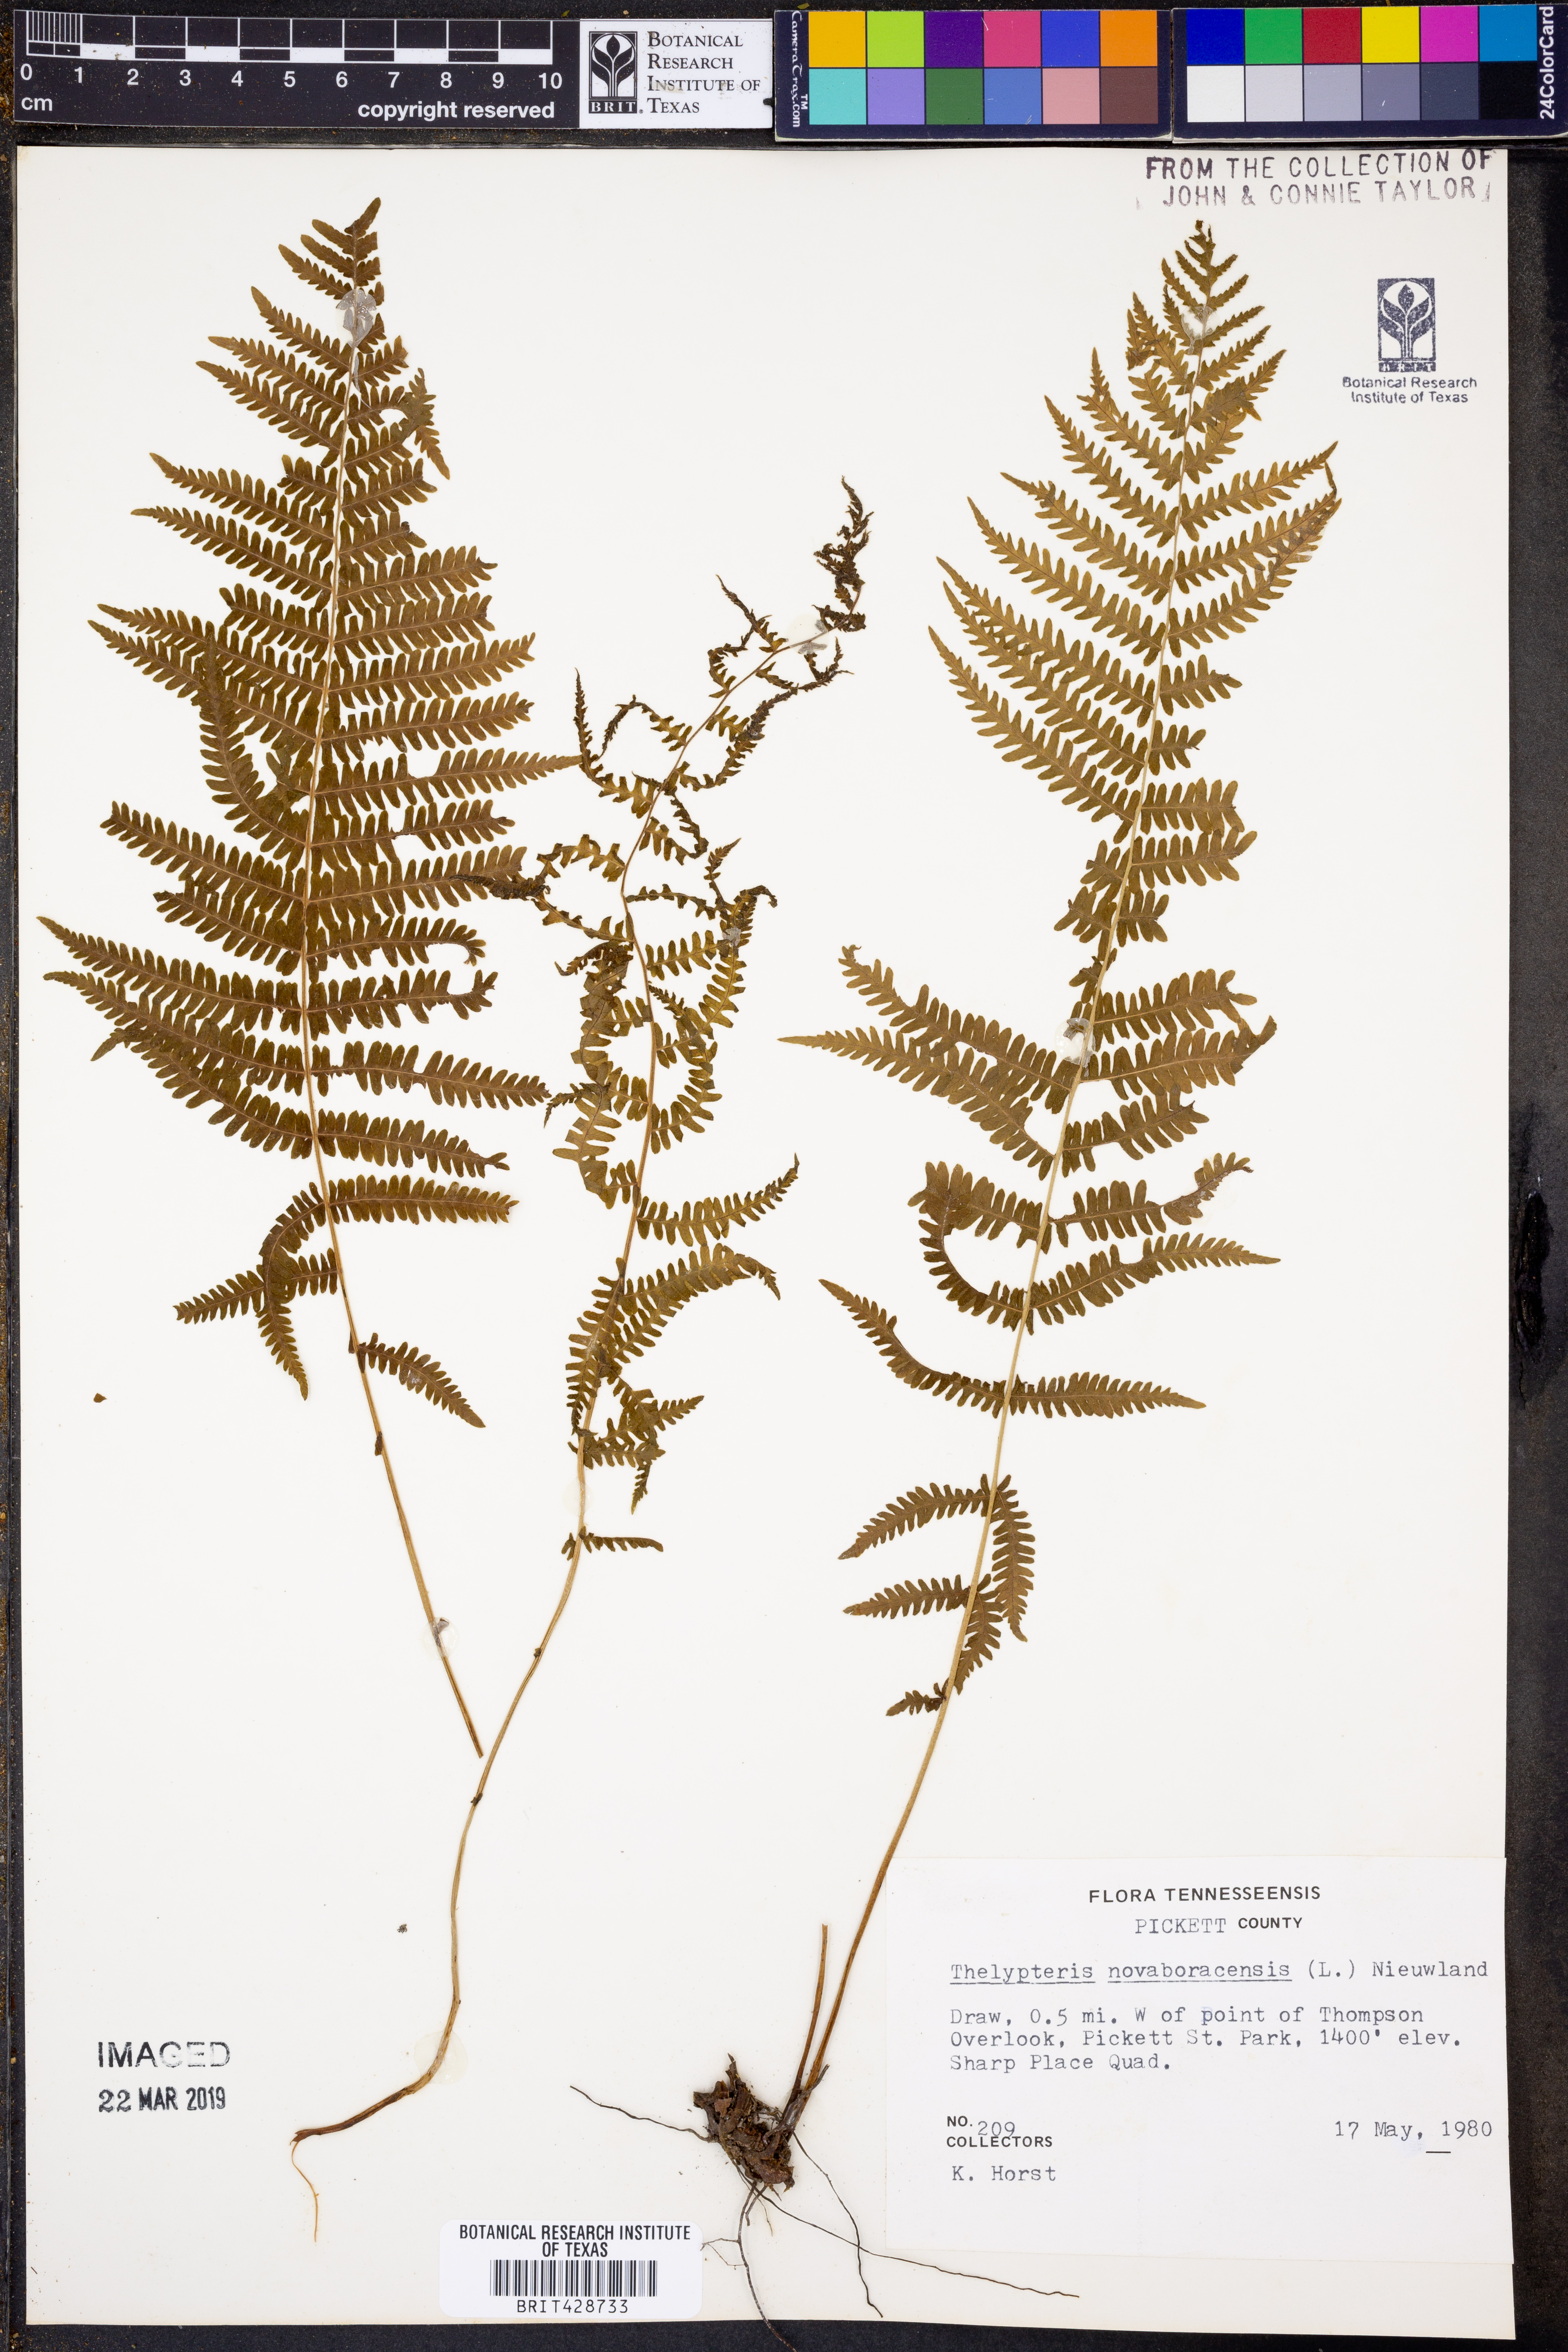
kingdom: Plantae
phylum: Tracheophyta
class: Polypodiopsida
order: Polypodiales
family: Thelypteridaceae
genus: Amauropelta
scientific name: Amauropelta noveboracensis
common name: New york fern
